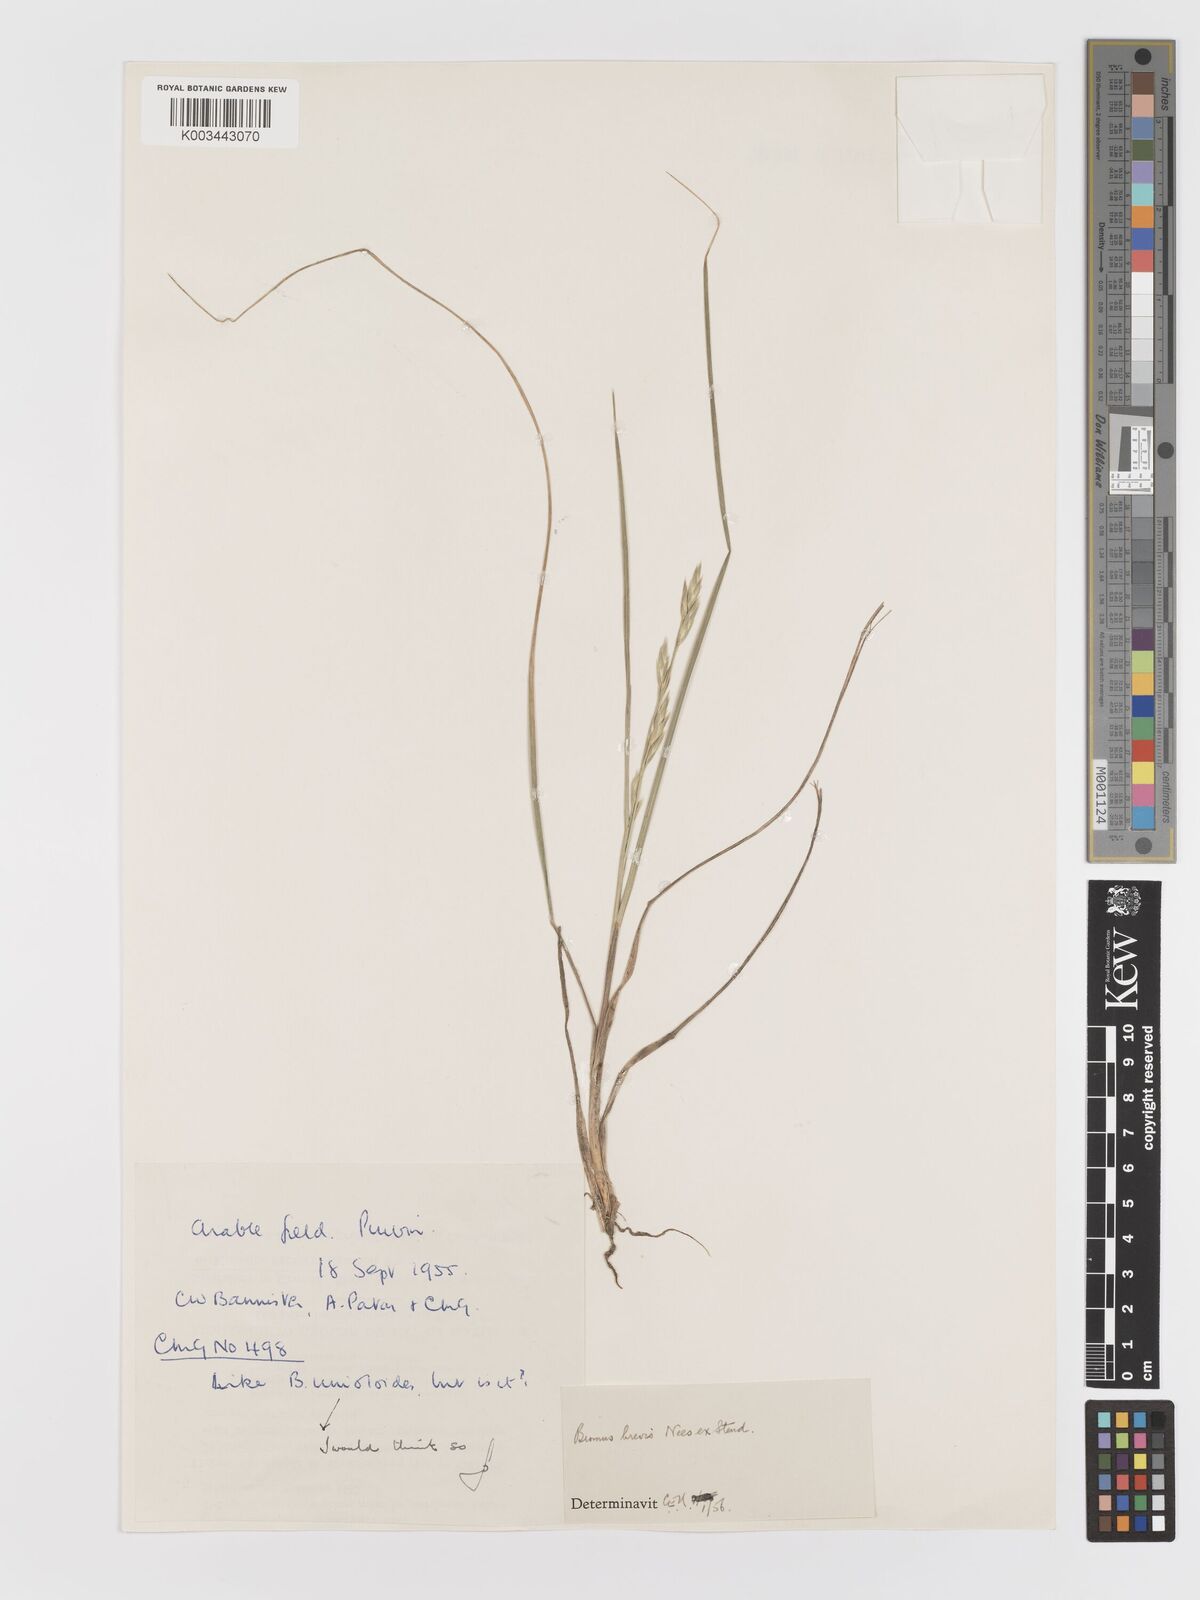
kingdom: Plantae
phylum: Tracheophyta
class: Liliopsida
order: Poales
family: Poaceae
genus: Bromus
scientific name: Bromus catharticus
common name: Rescuegrass
